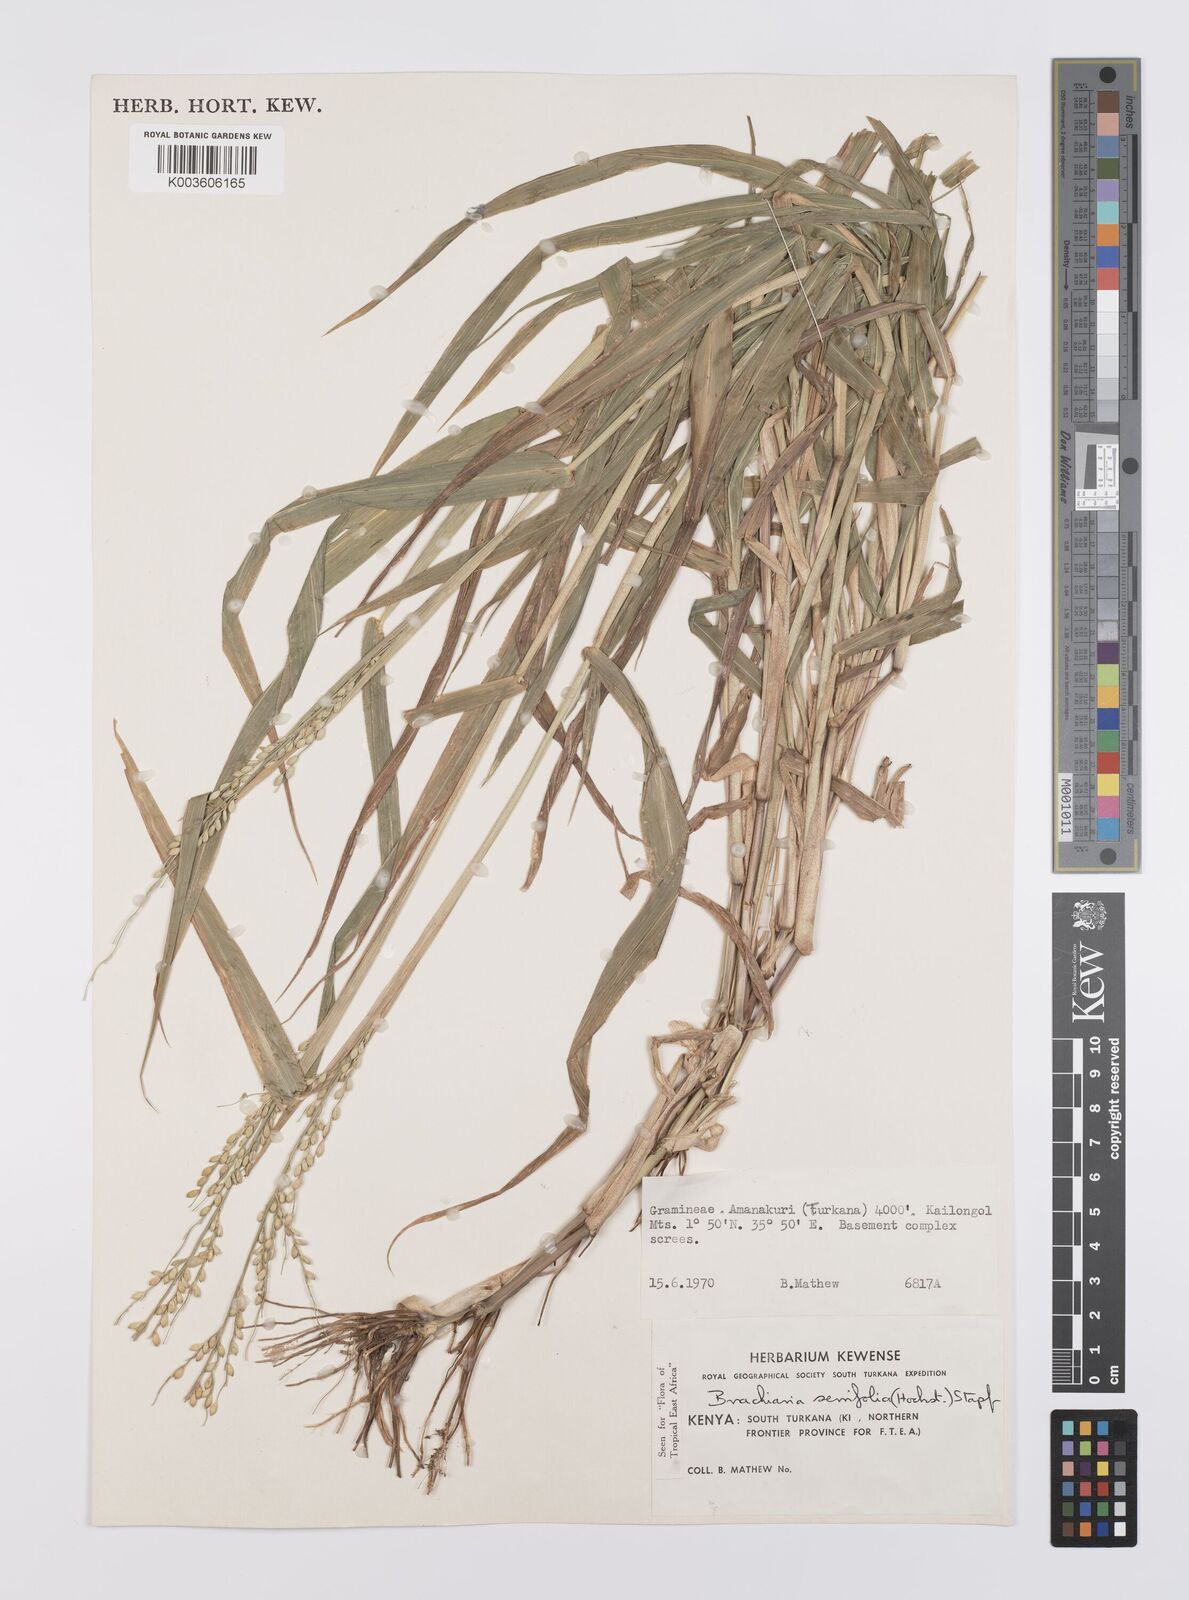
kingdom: Plantae
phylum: Tracheophyta
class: Liliopsida
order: Poales
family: Poaceae
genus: Urochloa
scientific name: Urochloa serrifolia
